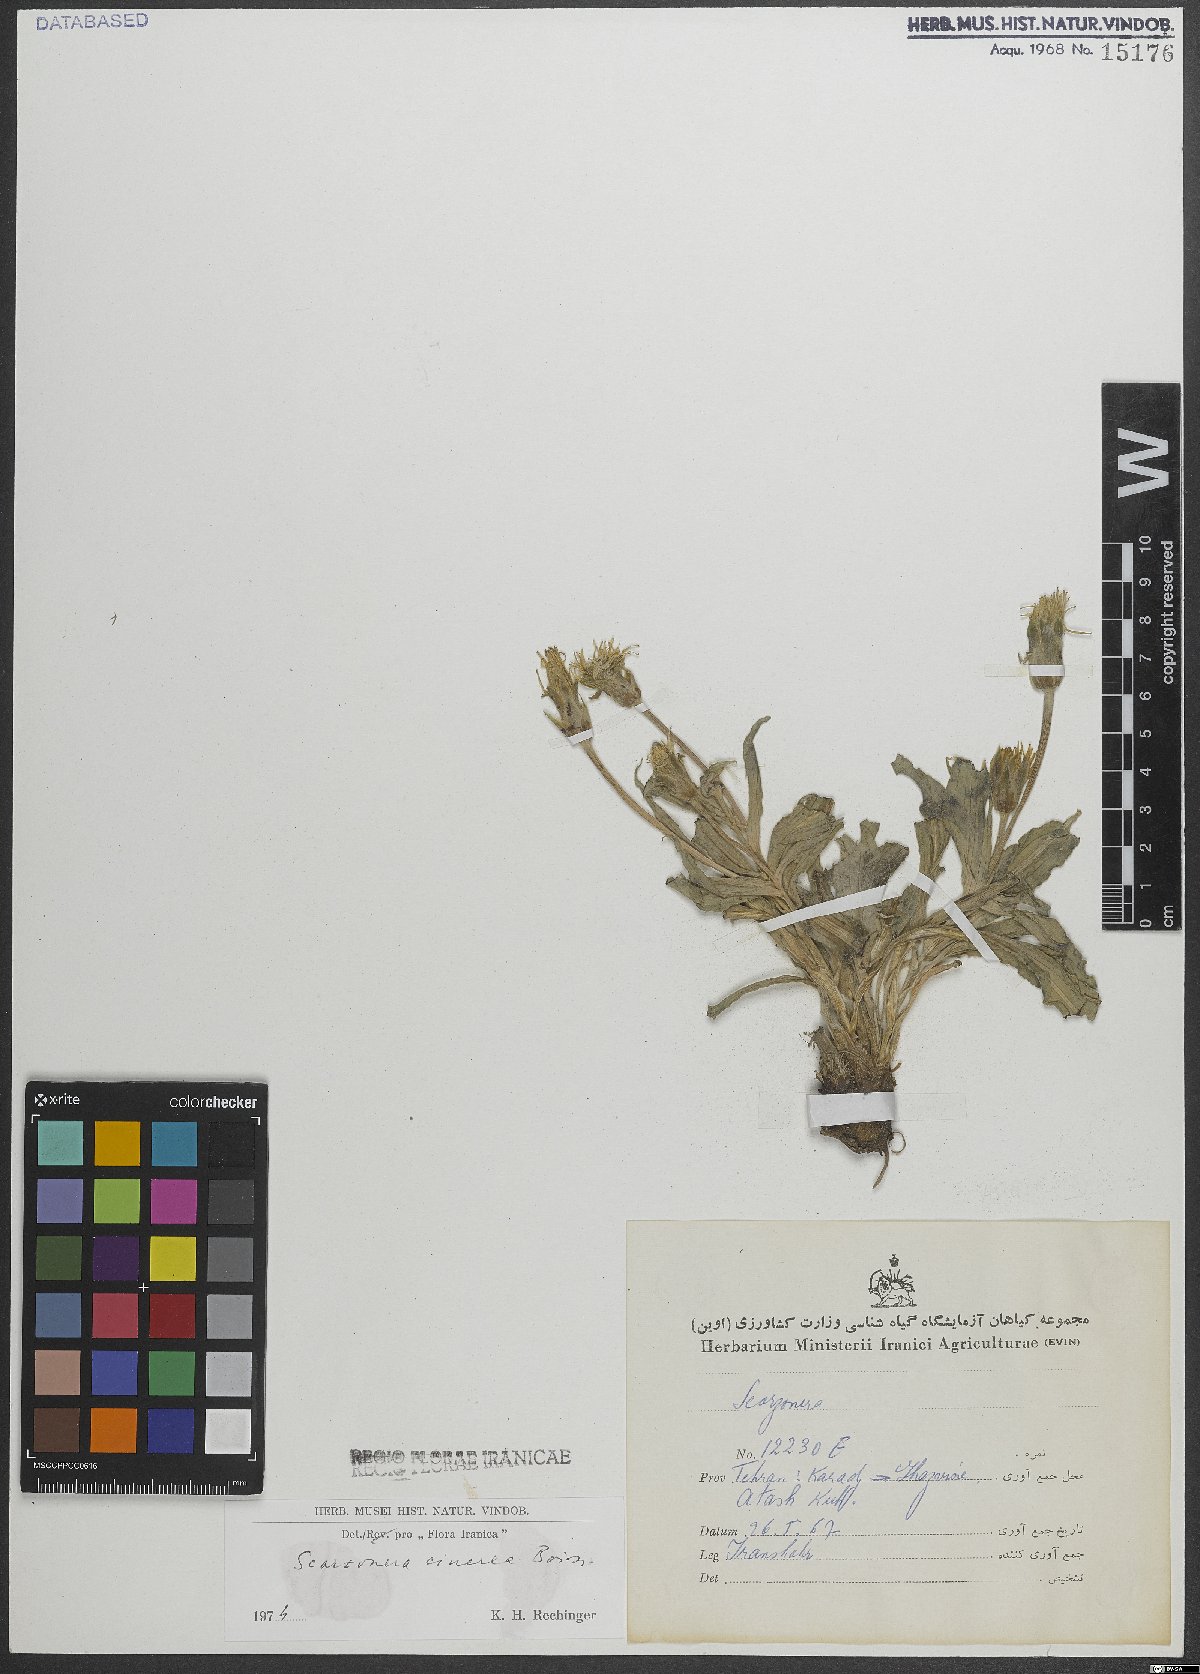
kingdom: Plantae
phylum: Tracheophyta
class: Magnoliopsida
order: Asterales
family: Asteraceae
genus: Cigdemia
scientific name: Cigdemia cinerea
